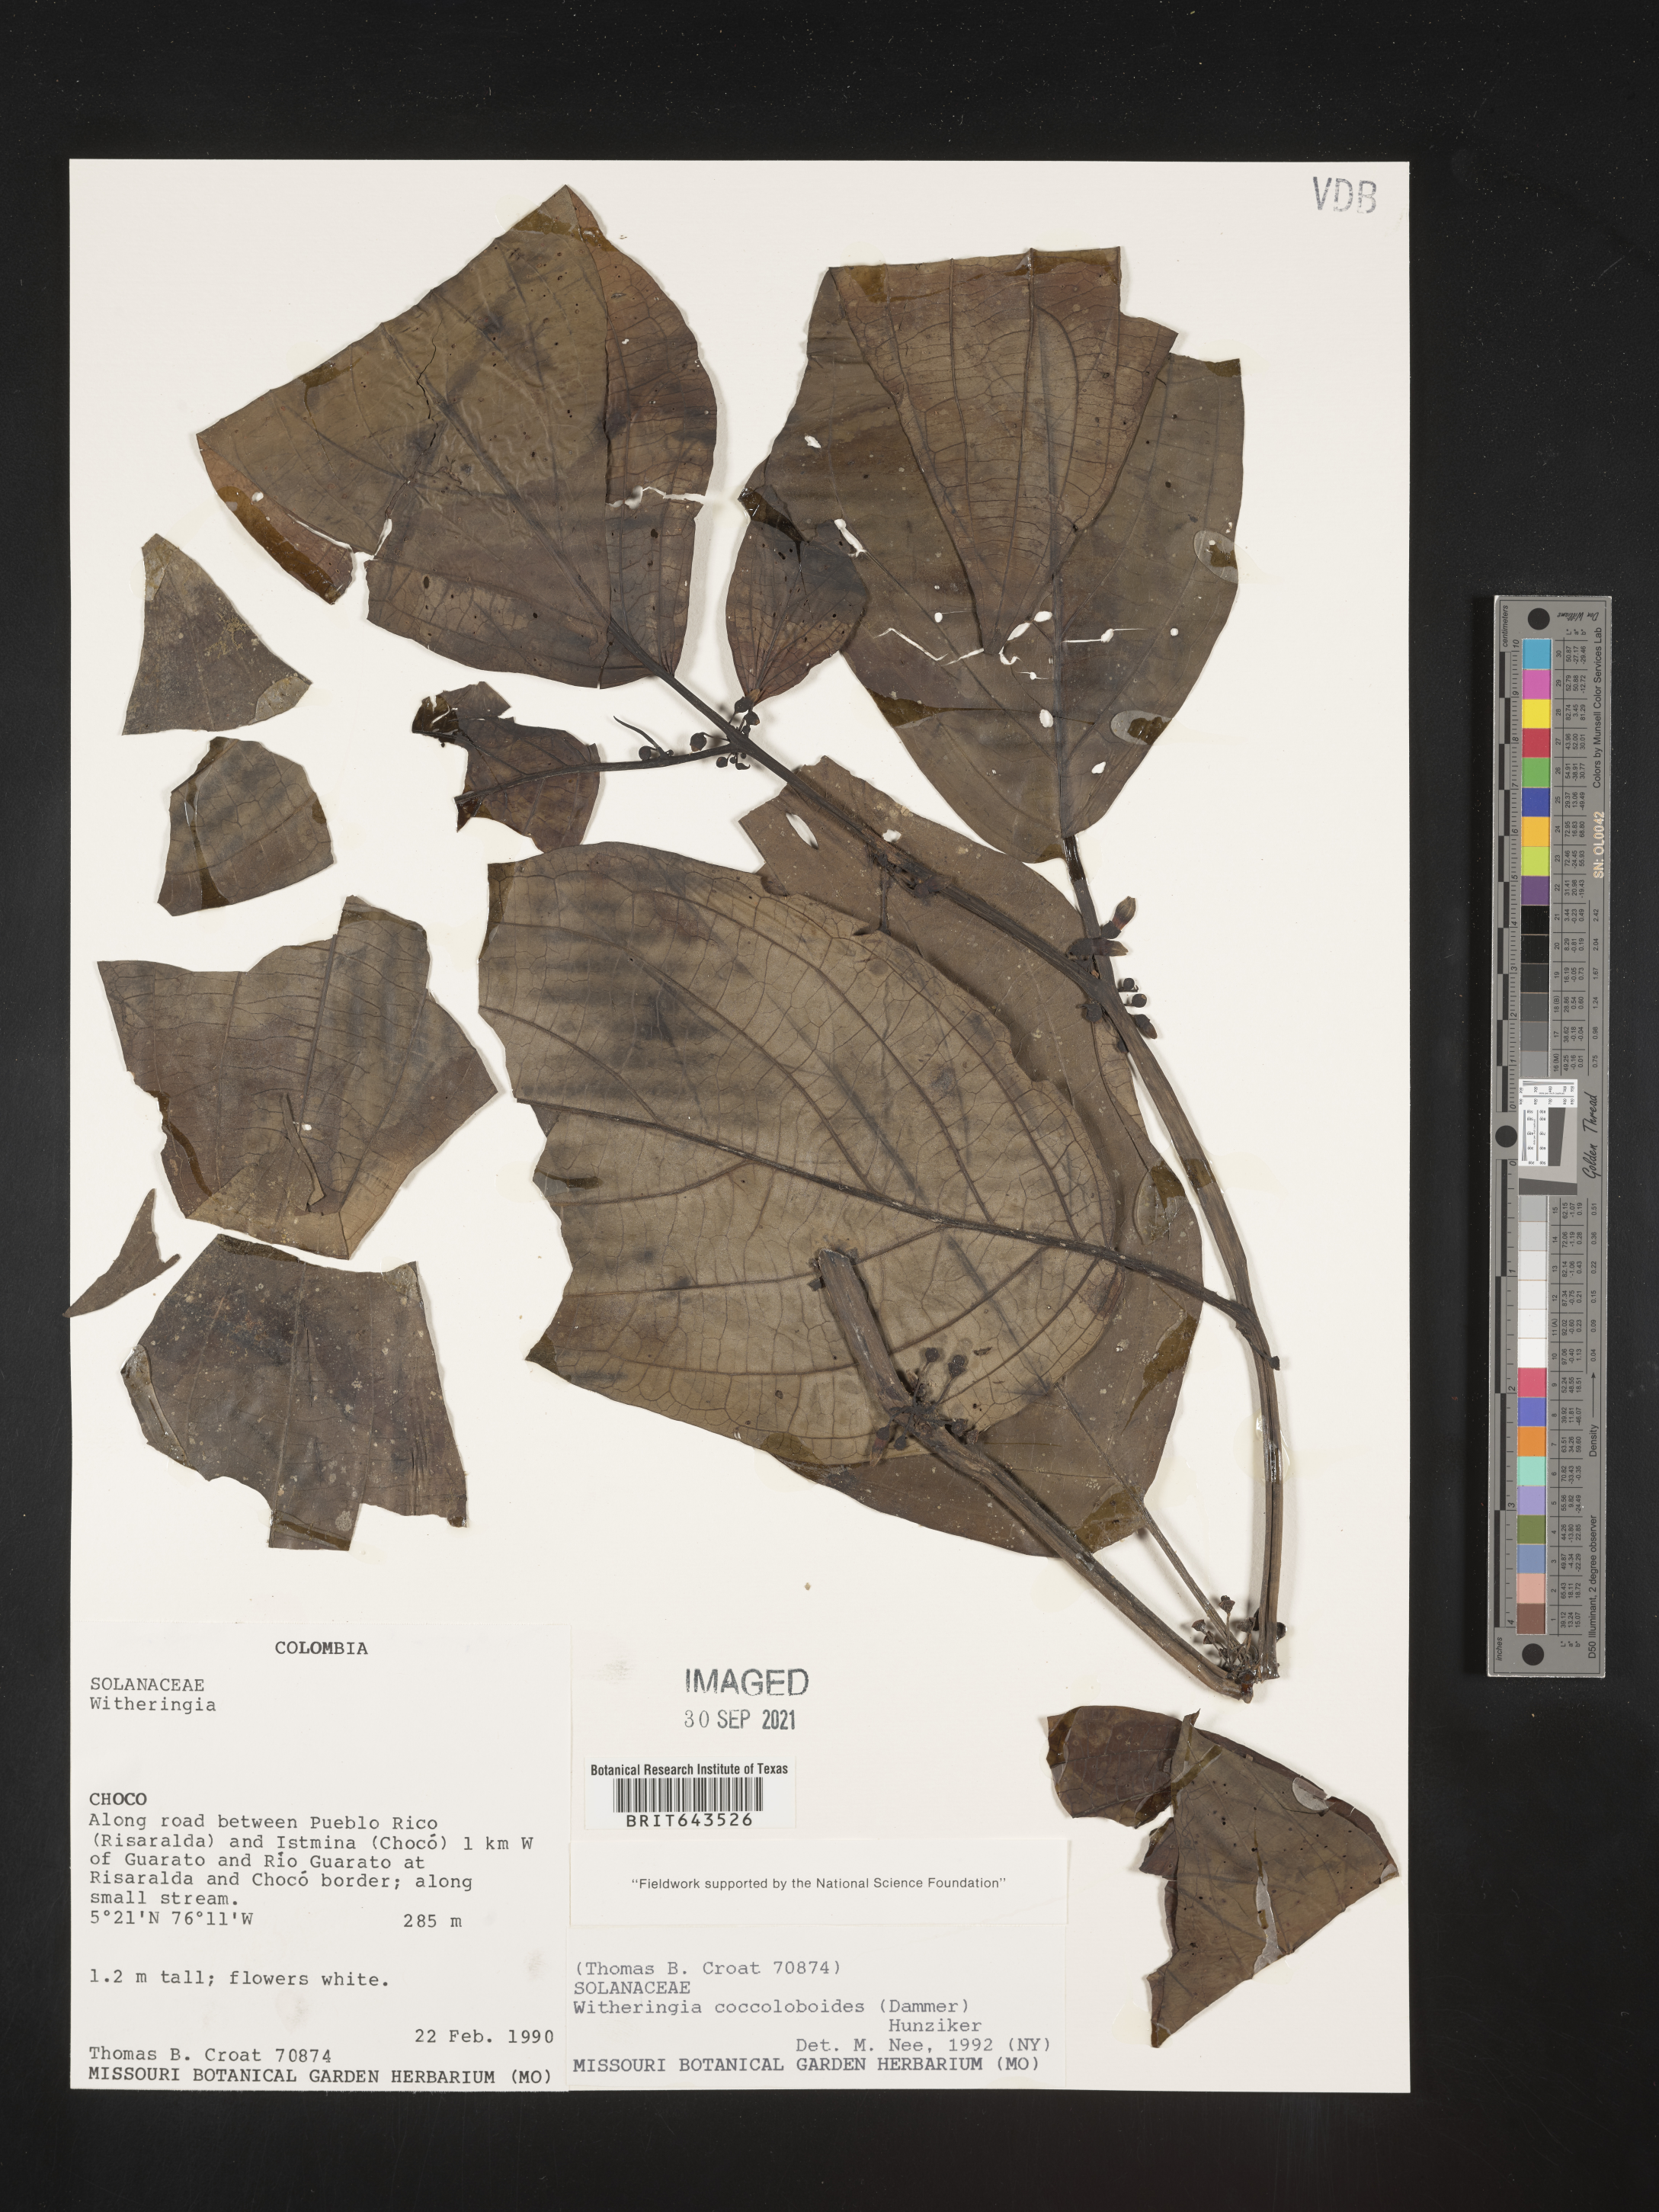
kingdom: Plantae
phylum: Tracheophyta
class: Magnoliopsida
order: Solanales
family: Solanaceae
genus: Witheringia
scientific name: Witheringia
